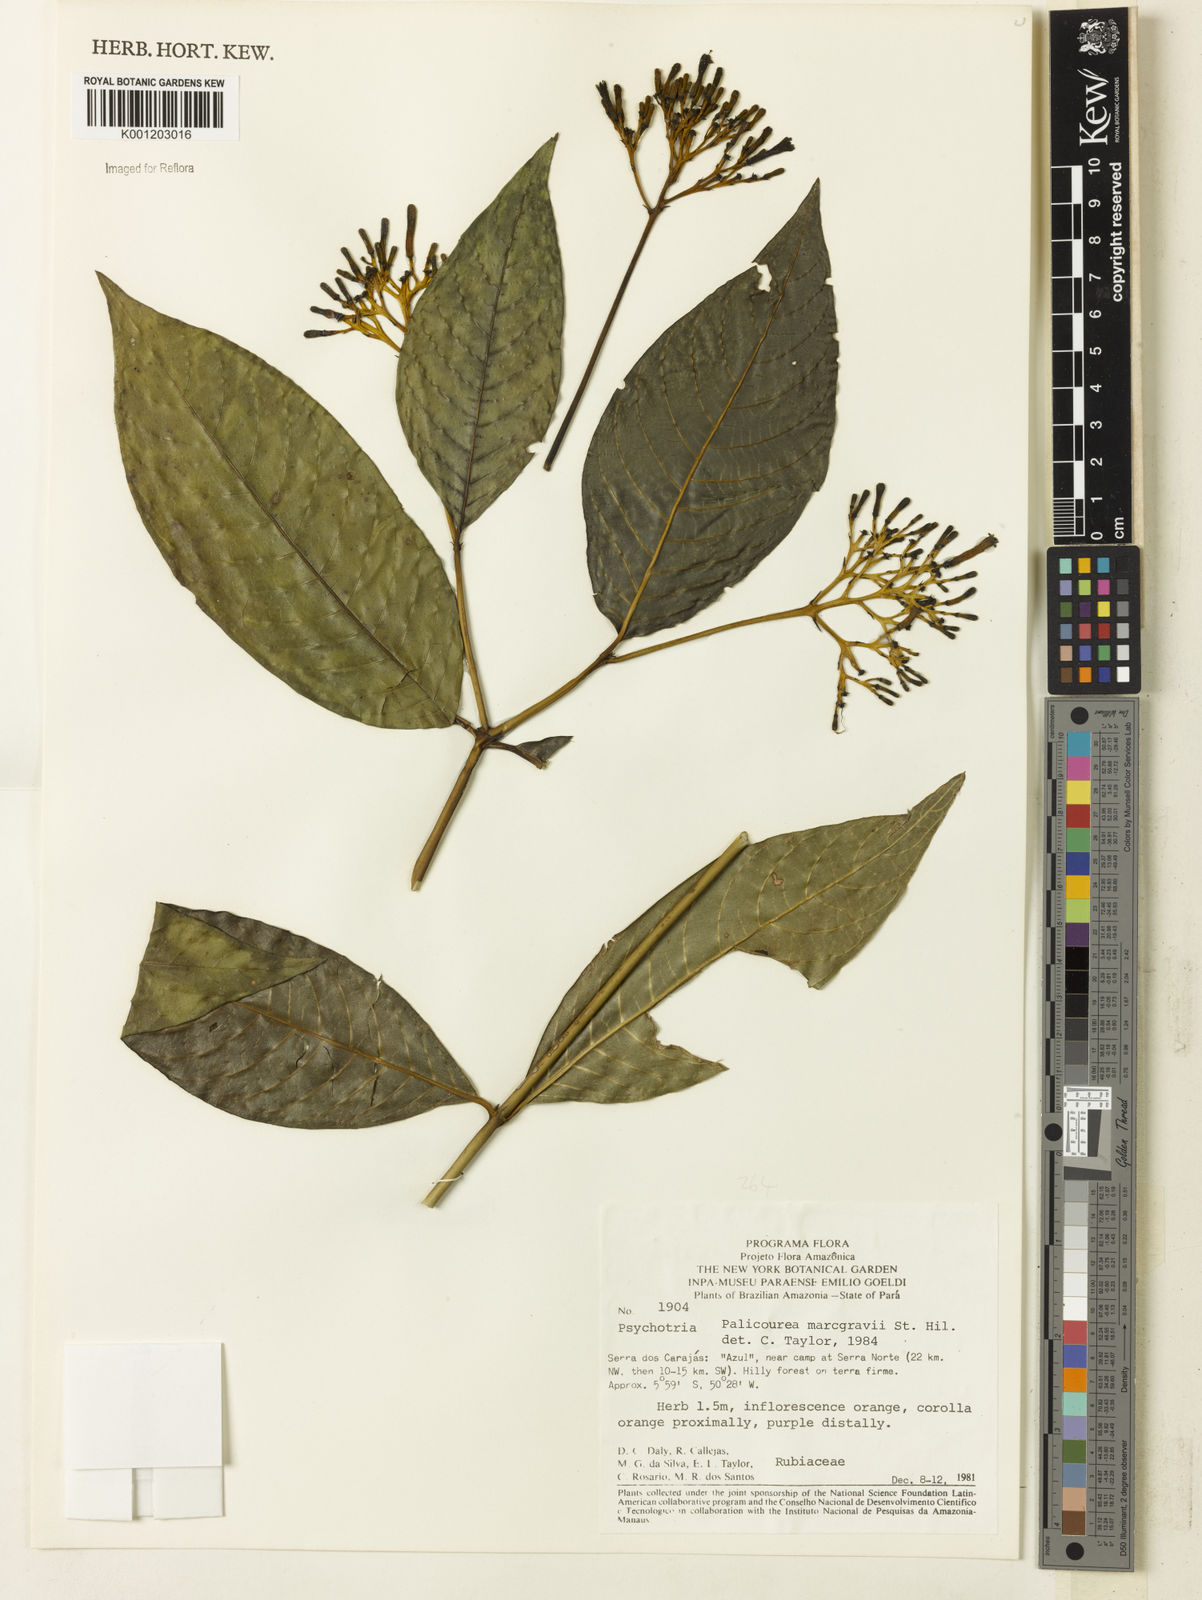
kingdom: Plantae
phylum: Tracheophyta
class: Magnoliopsida
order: Gentianales
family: Rubiaceae
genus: Palicourea
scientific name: Palicourea marcgravii
